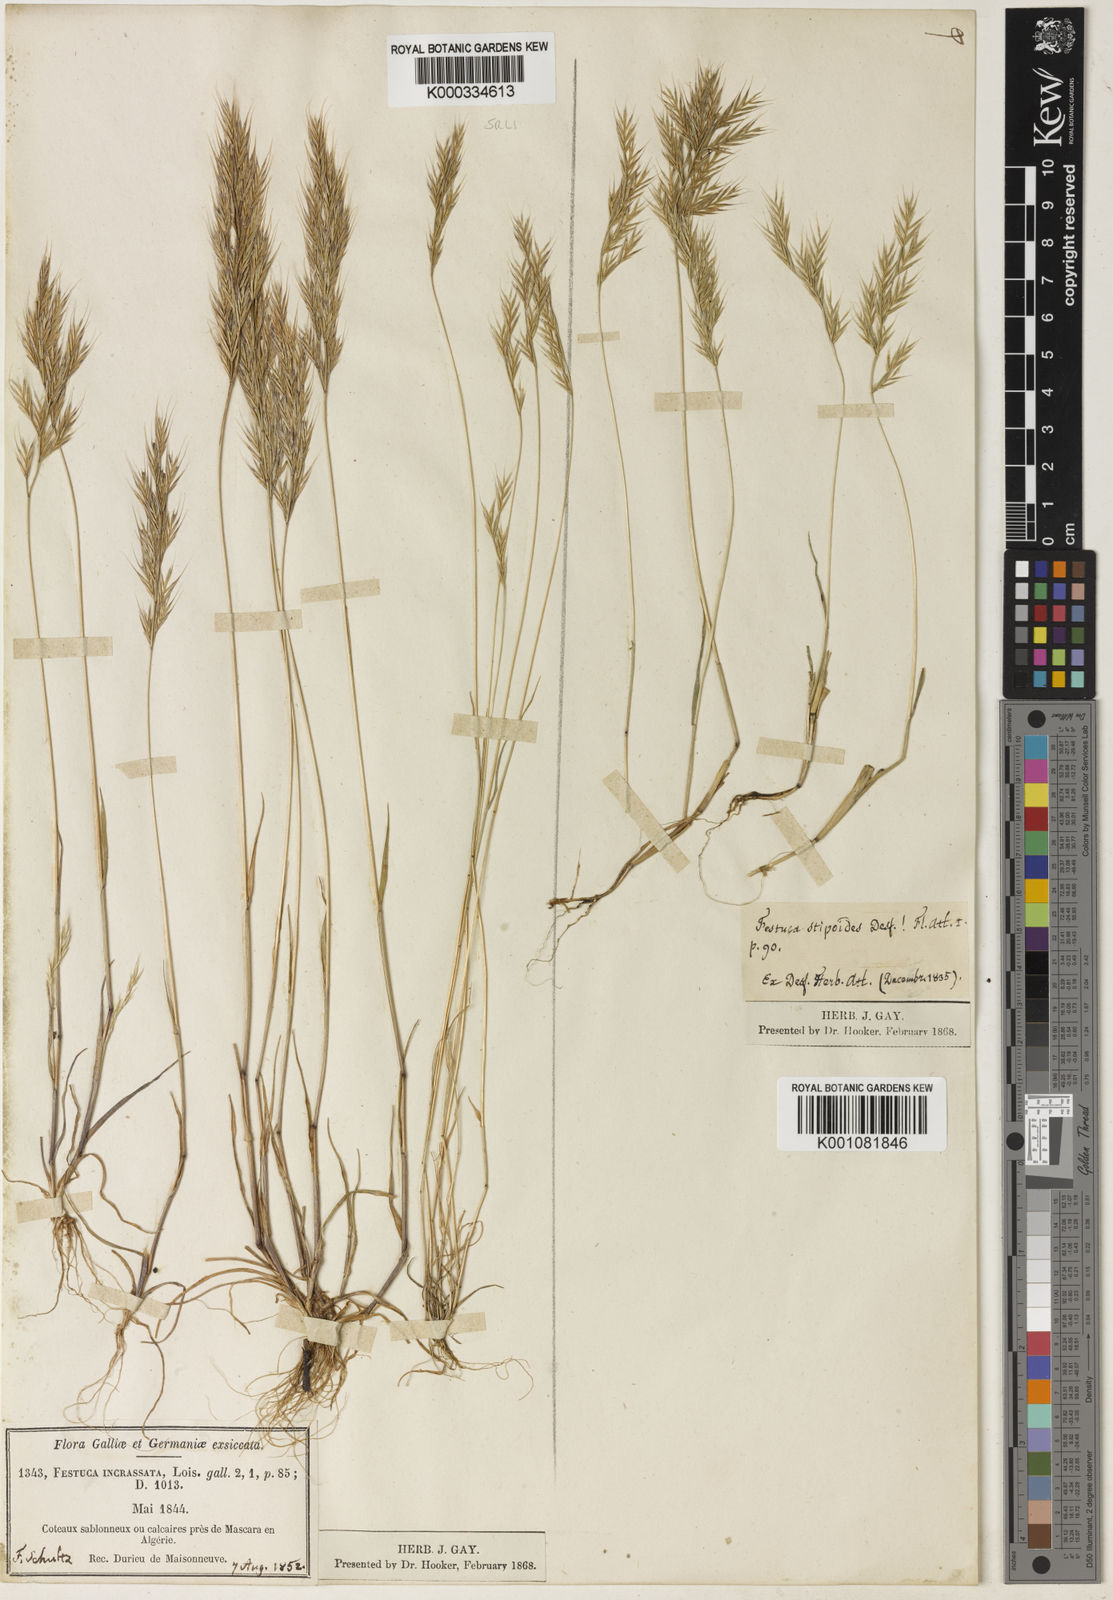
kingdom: Plantae
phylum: Tracheophyta
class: Liliopsida
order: Poales
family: Poaceae
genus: Vulpiella
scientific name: Vulpiella stipoides
